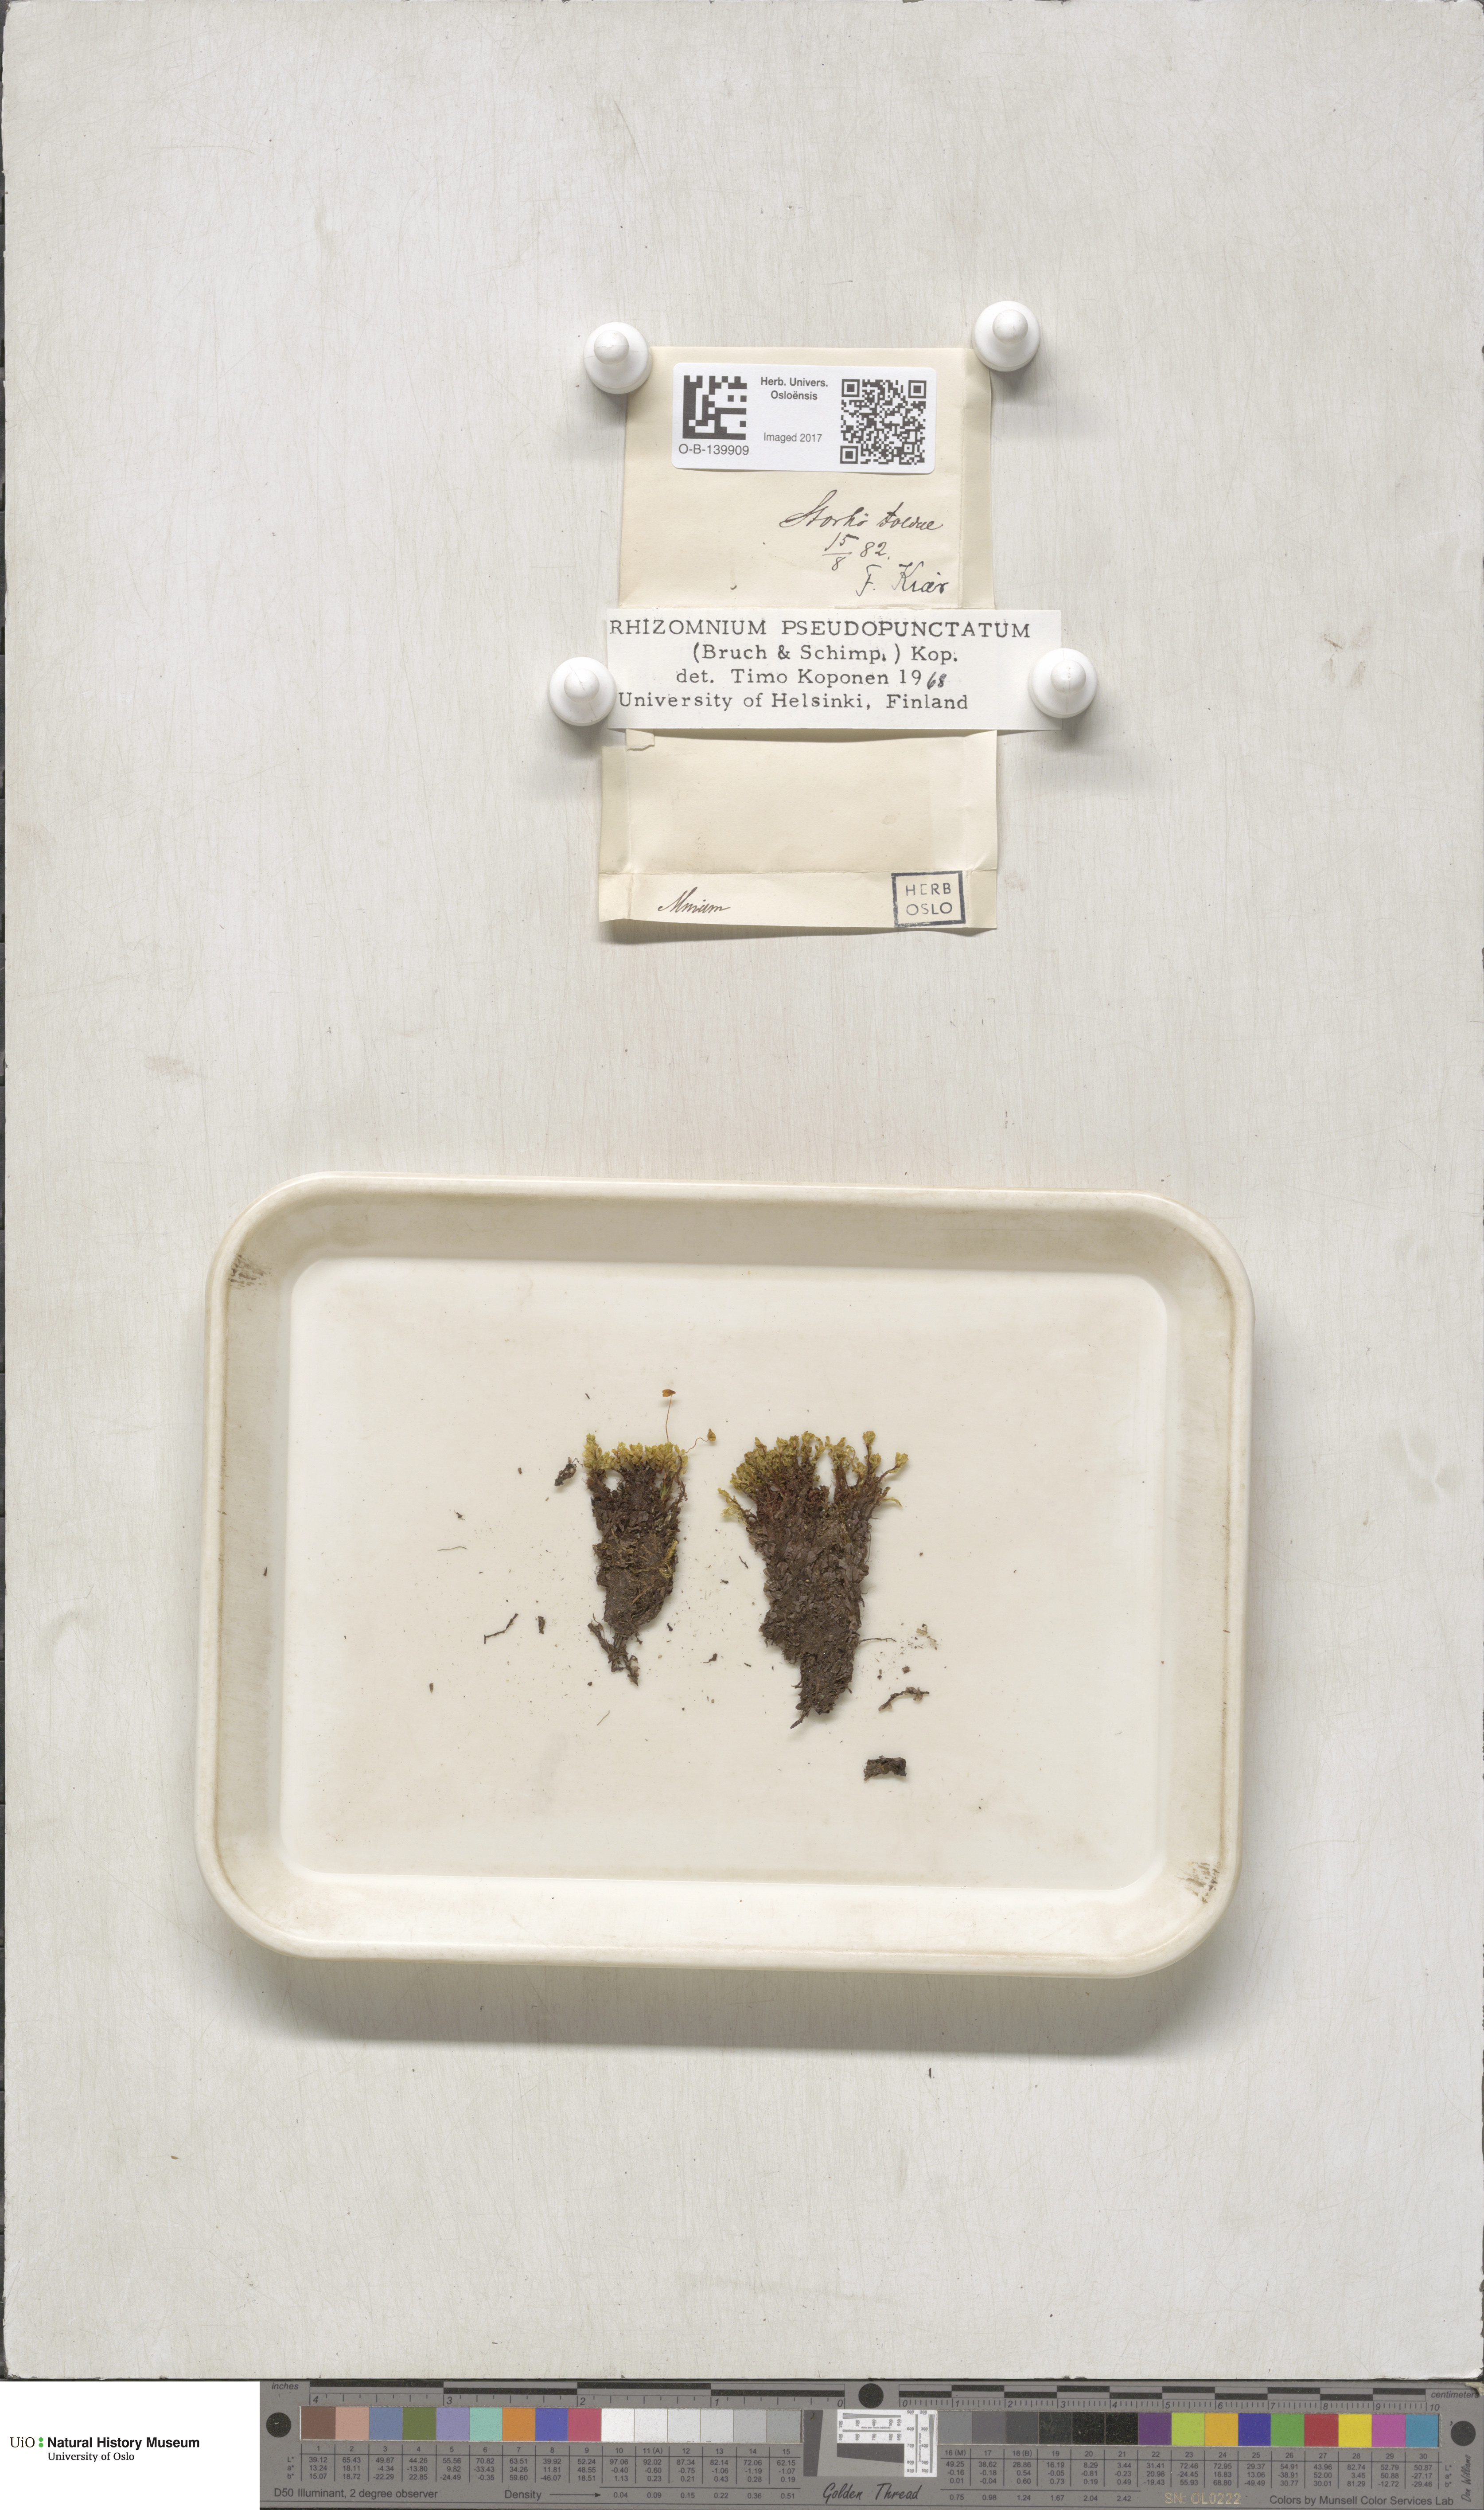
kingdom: Plantae
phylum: Bryophyta
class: Bryopsida
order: Bryales
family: Mniaceae
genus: Rhizomnium
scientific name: Rhizomnium pseudopunctatum
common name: Felted leafy moss
